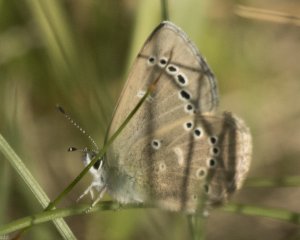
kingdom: Animalia
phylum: Arthropoda
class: Insecta
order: Lepidoptera
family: Lycaenidae
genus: Glaucopsyche
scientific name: Glaucopsyche lygdamus
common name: Silvery Blue
